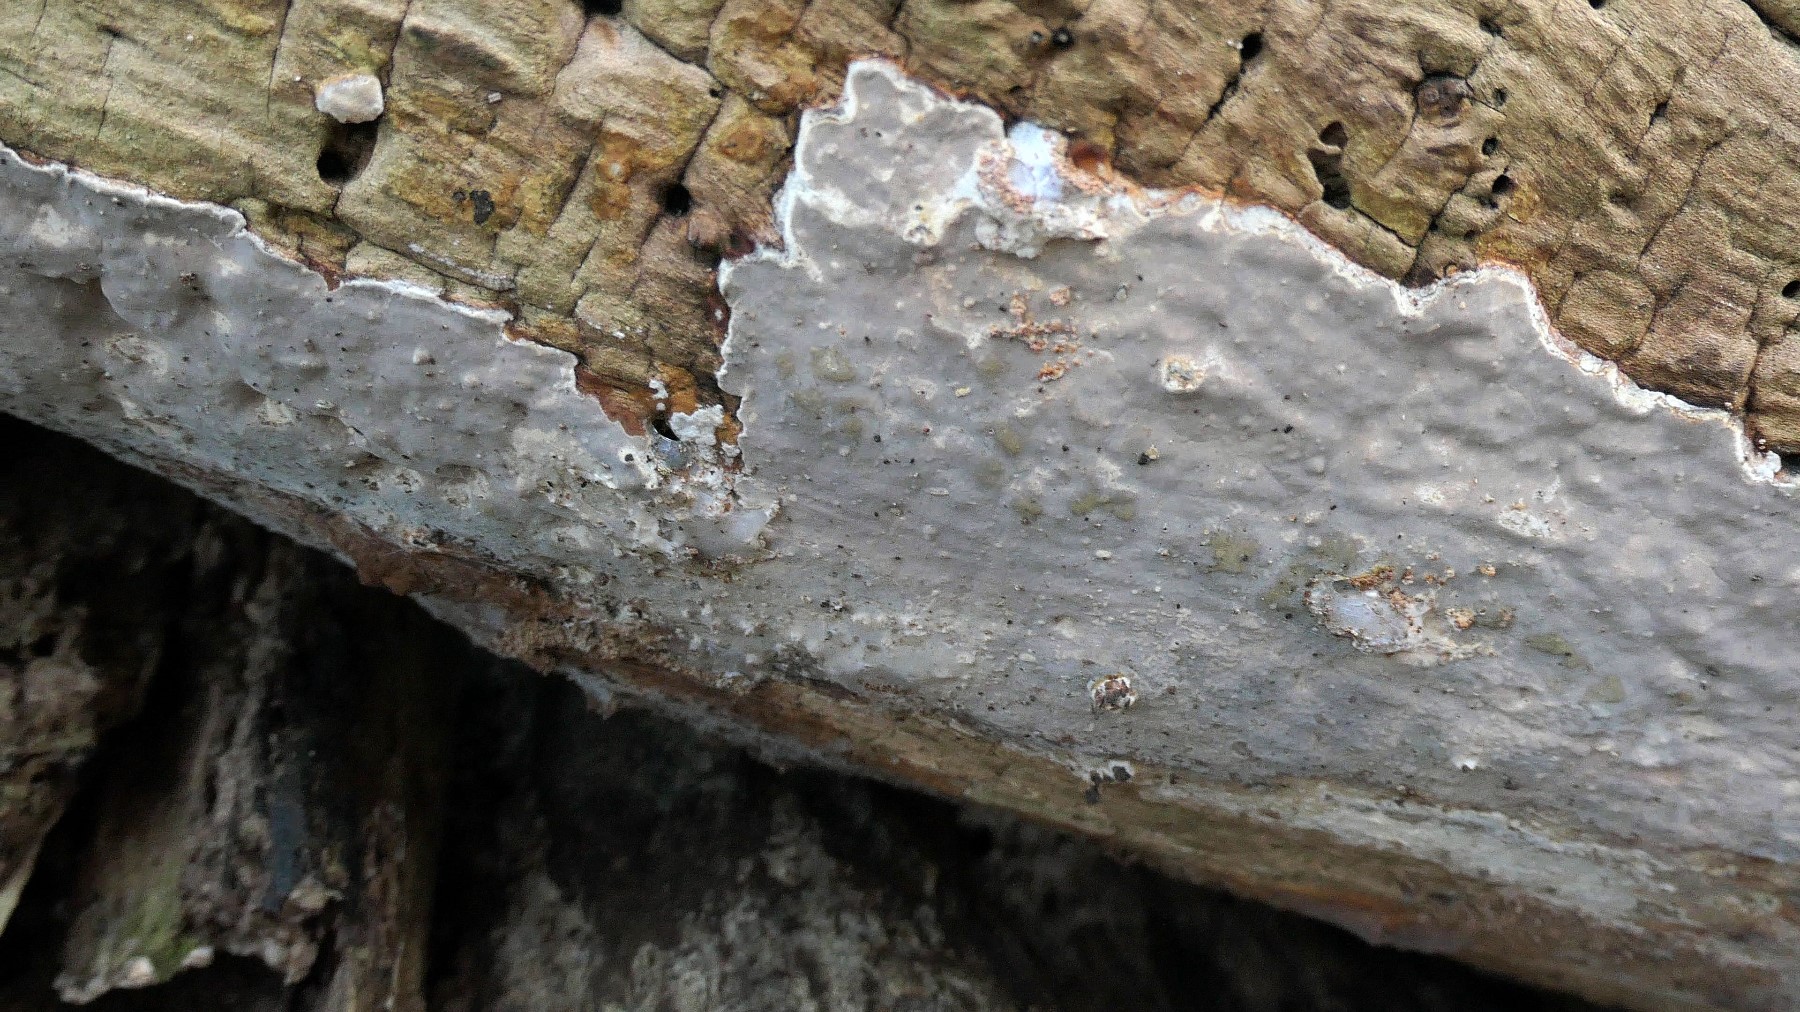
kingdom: Fungi
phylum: Basidiomycota
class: Agaricomycetes
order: Russulales
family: Peniophoraceae
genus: Scytinostroma
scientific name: Scytinostroma hemidichophyticum
